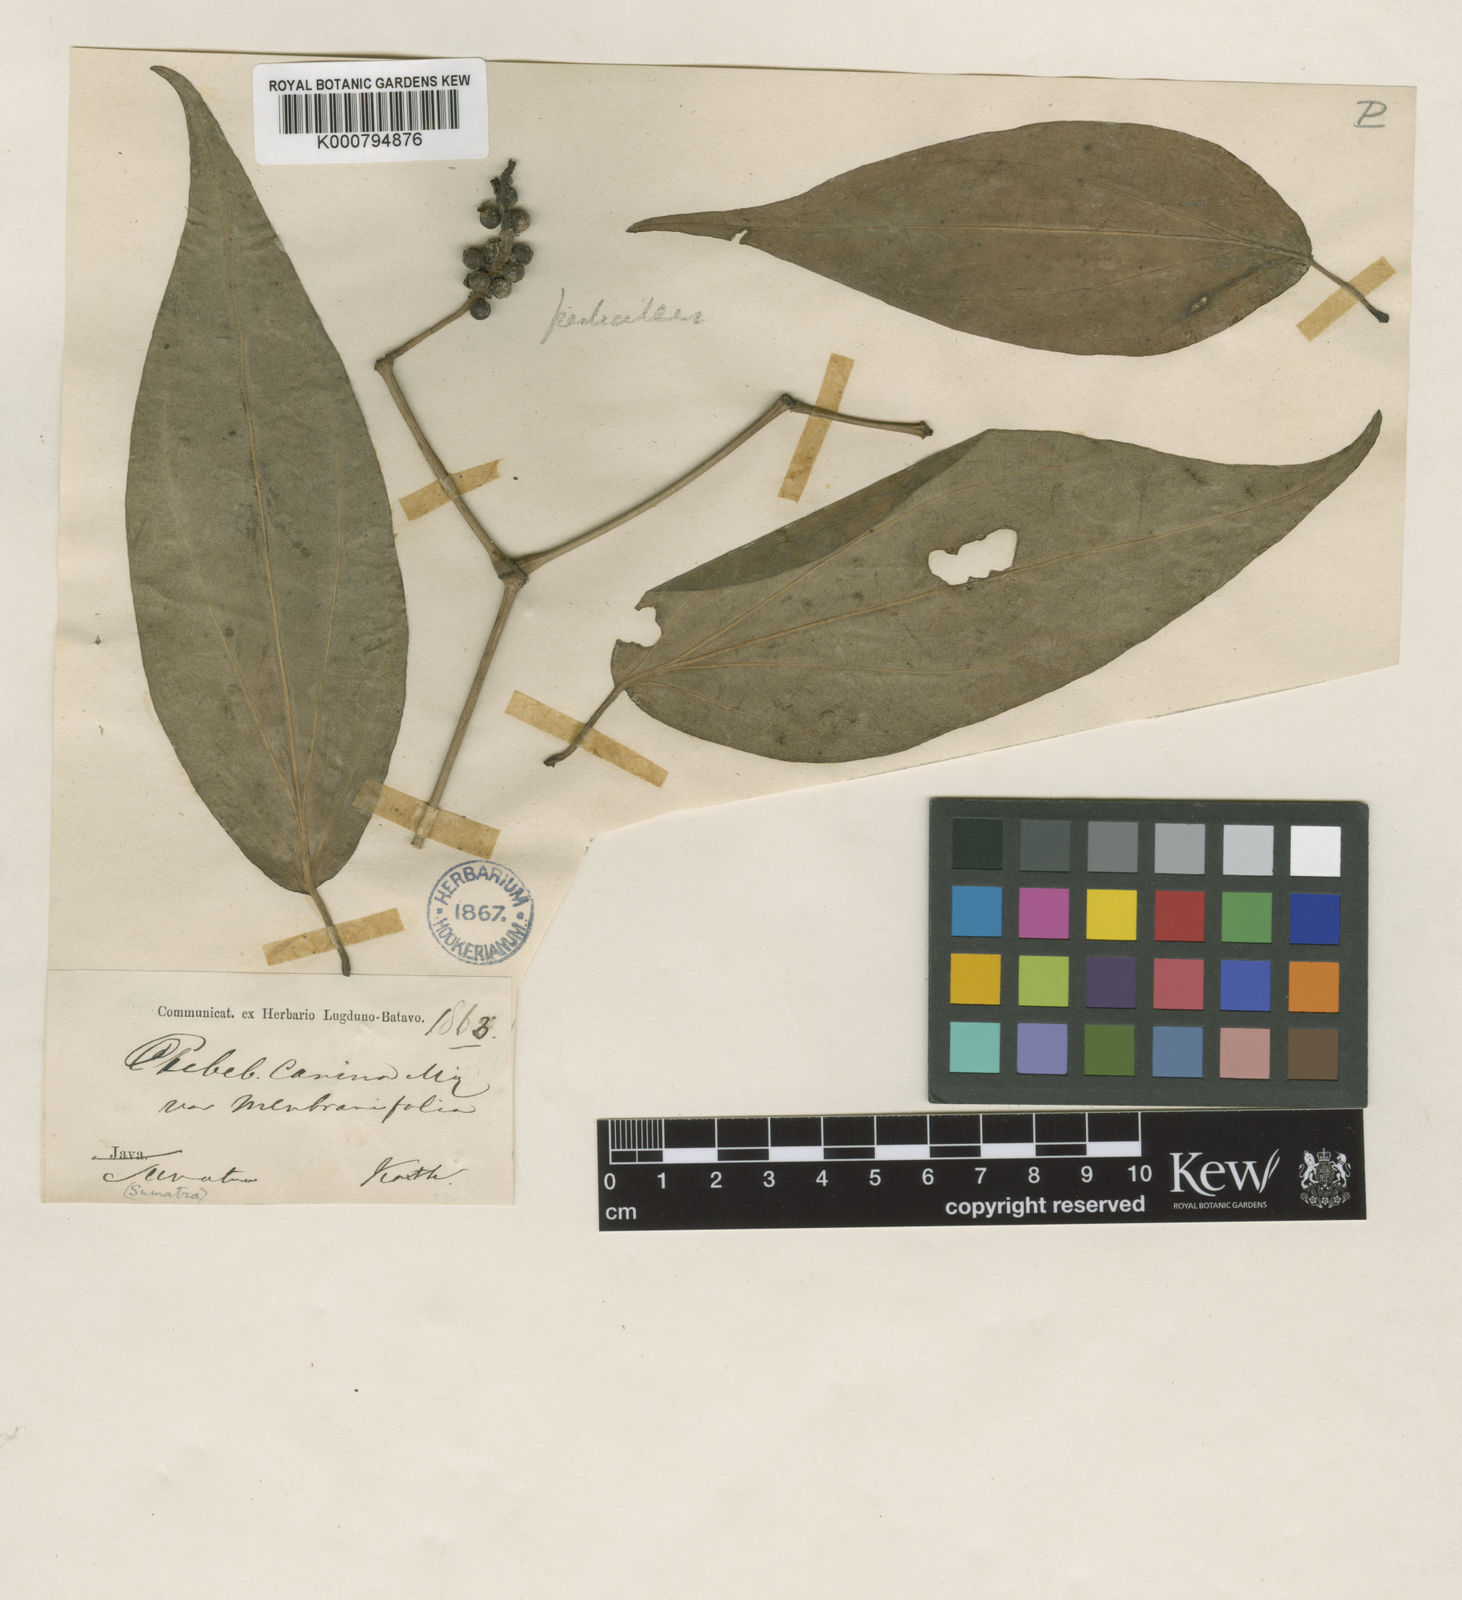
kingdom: Plantae
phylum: Tracheophyta
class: Magnoliopsida
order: Piperales
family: Piperaceae
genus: Piper
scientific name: Piper lanatum
